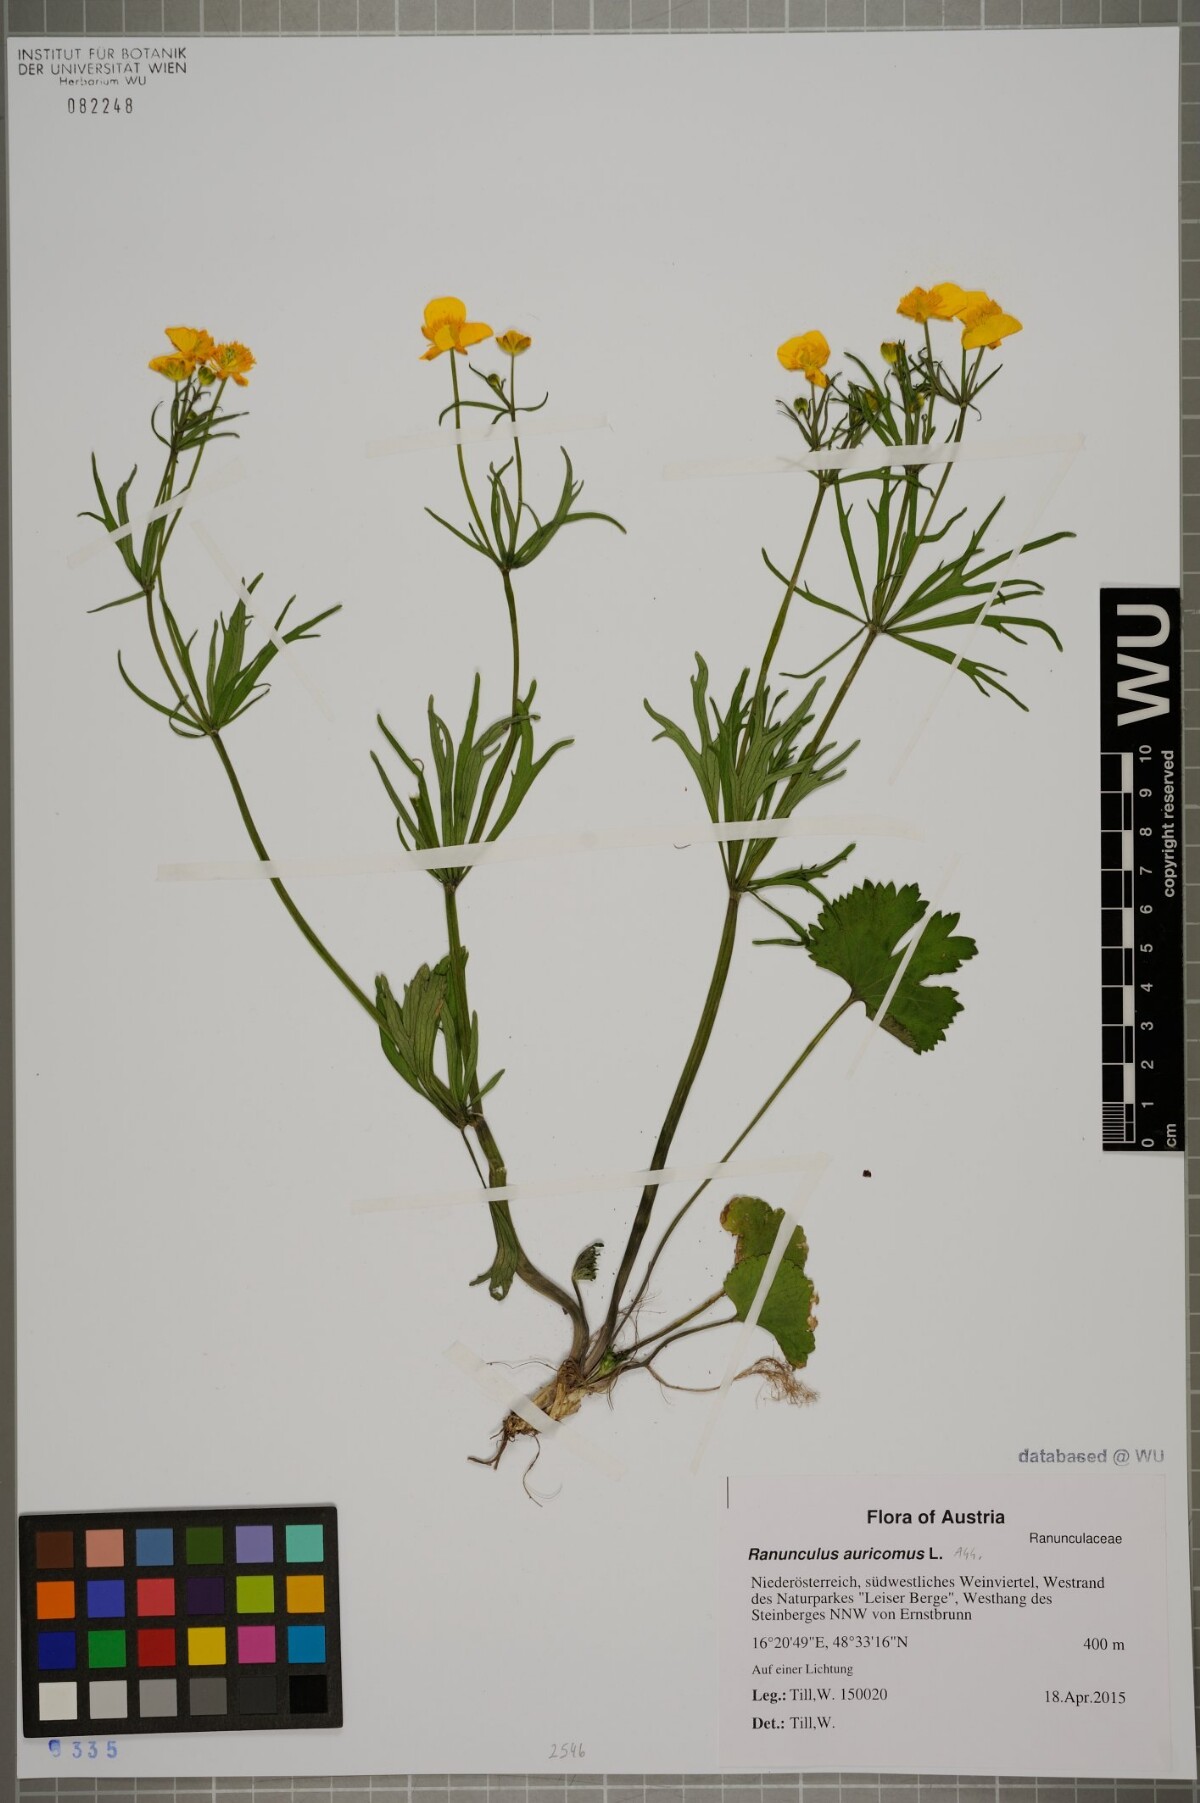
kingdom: Plantae
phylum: Tracheophyta
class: Magnoliopsida
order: Ranunculales
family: Ranunculaceae
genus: Ranunculus
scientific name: Ranunculus auricomus
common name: Goldilocks buttercup
